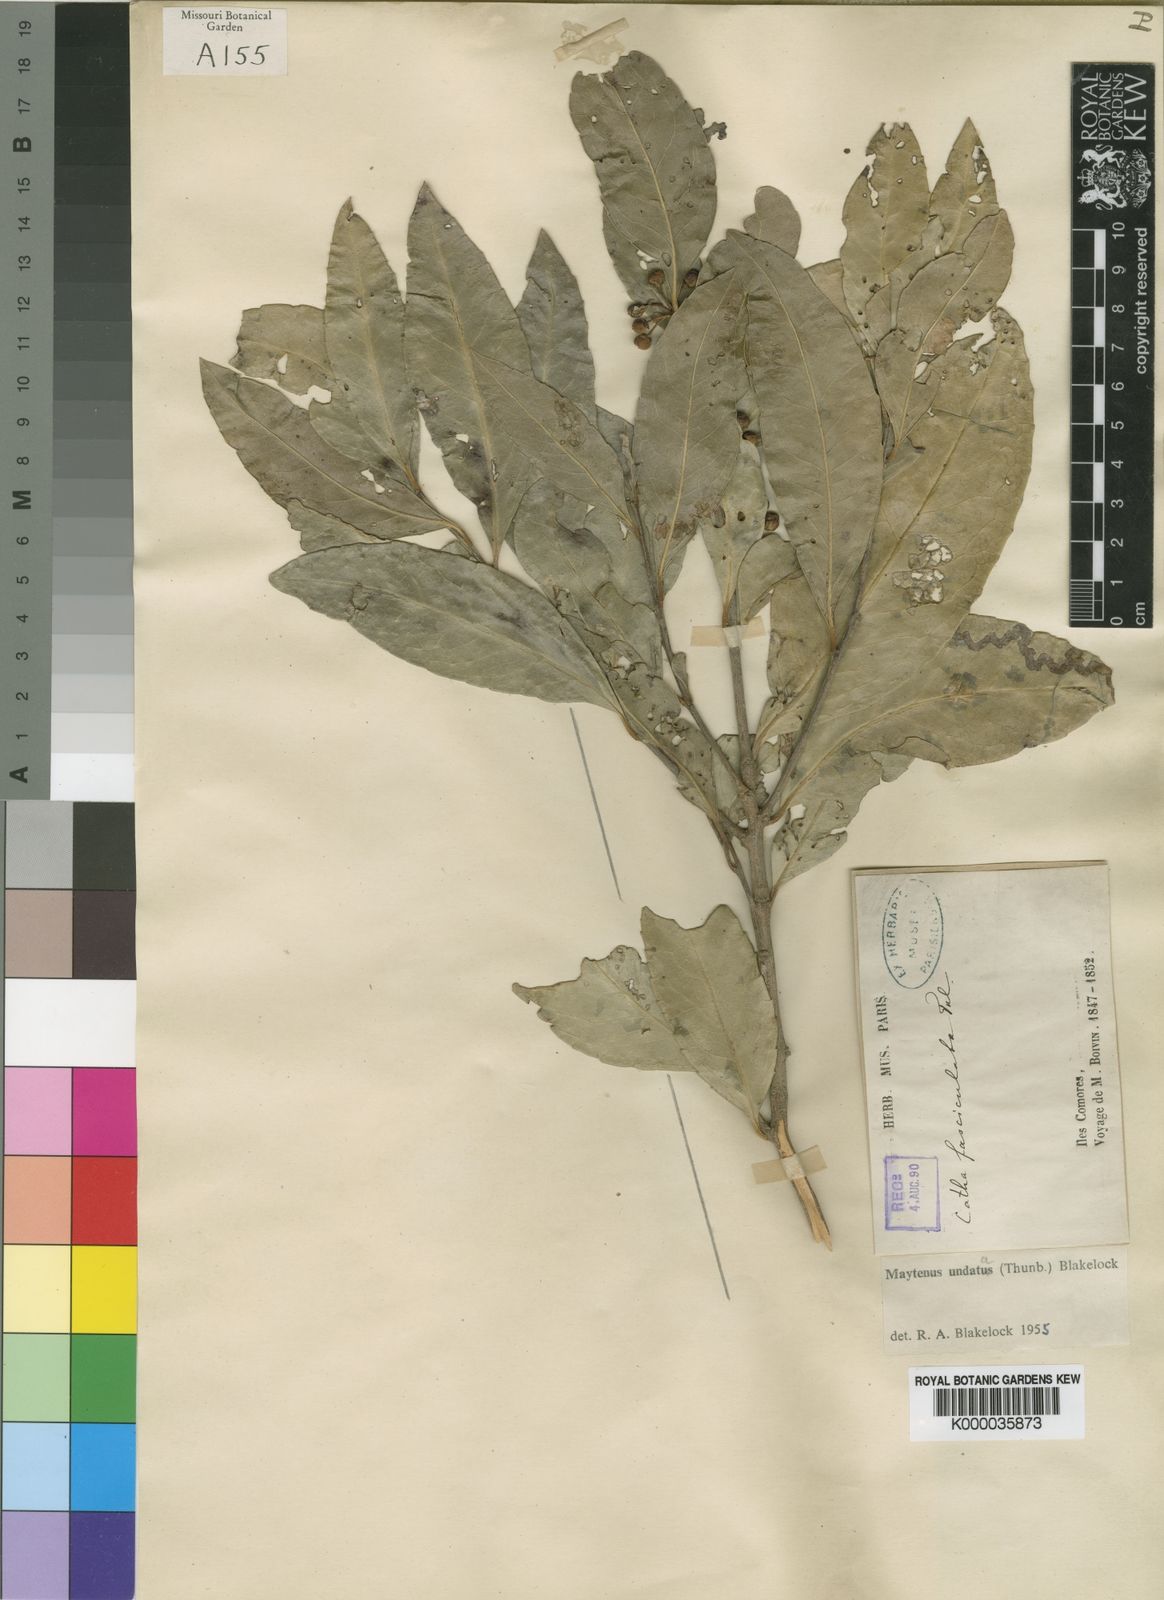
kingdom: Plantae
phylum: Tracheophyta
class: Magnoliopsida
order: Celastrales
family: Celastraceae
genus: Gymnosporia
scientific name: Gymnosporia undata
